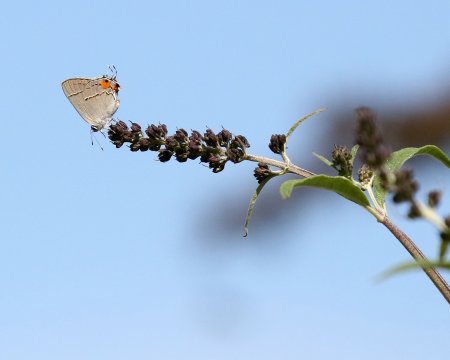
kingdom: Animalia
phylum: Arthropoda
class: Insecta
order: Lepidoptera
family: Lycaenidae
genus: Strymon
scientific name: Strymon melinus
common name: Gray Hairstreak
